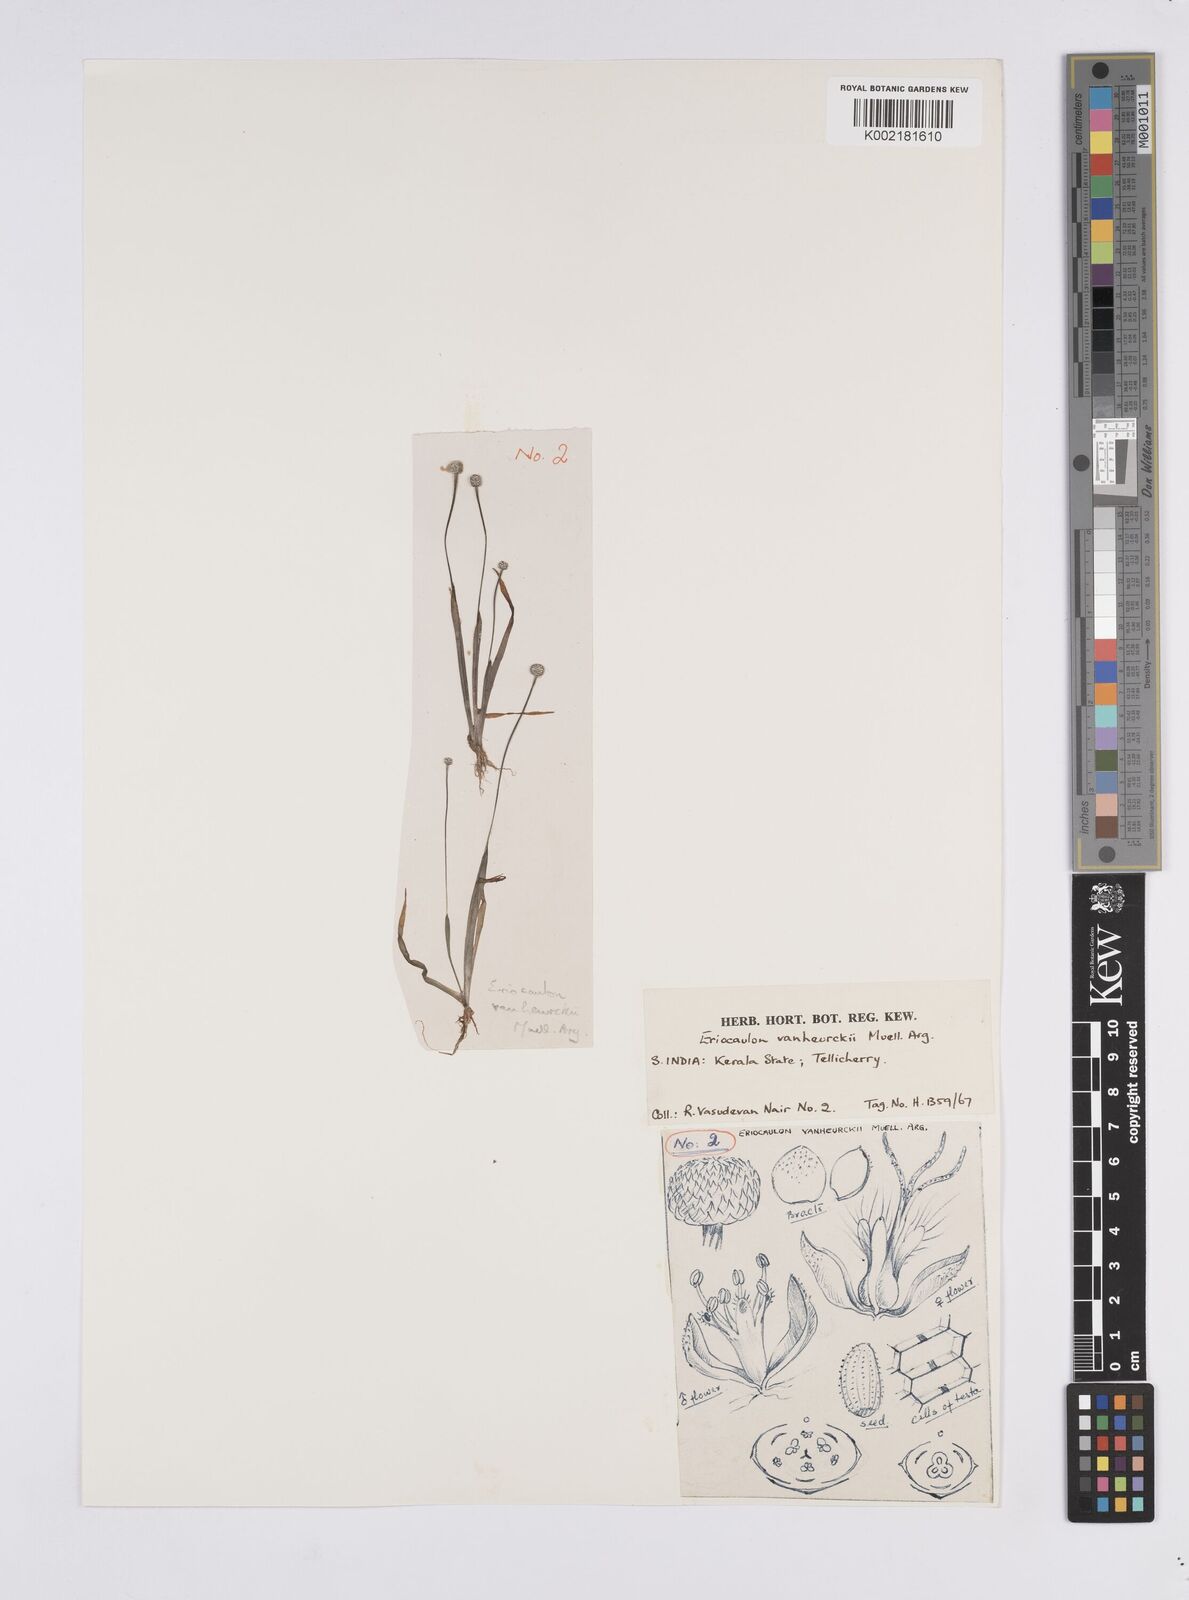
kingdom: Plantae
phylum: Tracheophyta
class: Liliopsida
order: Poales
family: Eriocaulaceae
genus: Eriocaulon
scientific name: Eriocaulon eurypeplon
